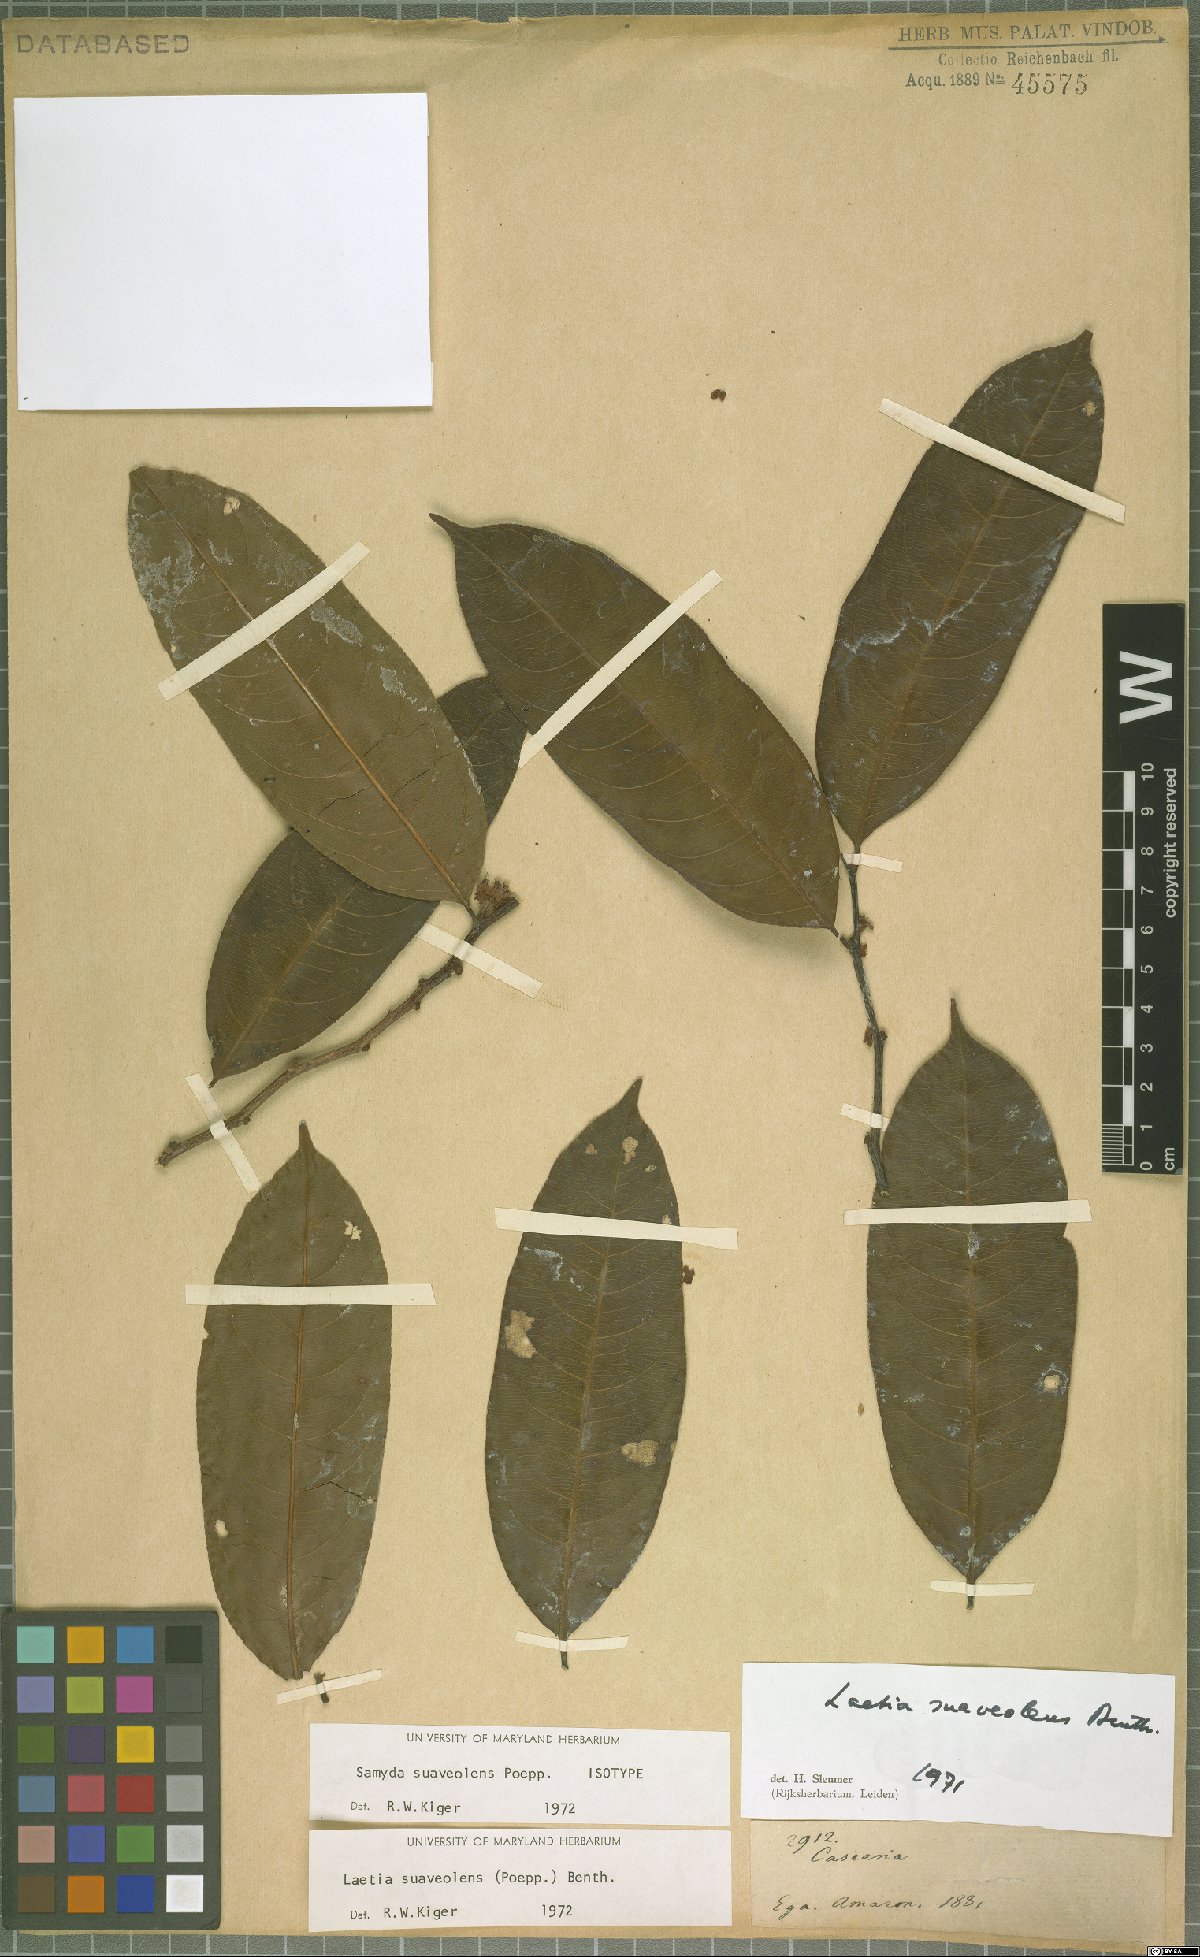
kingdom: Plantae
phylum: Tracheophyta
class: Magnoliopsida
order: Malpighiales
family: Salicaceae
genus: Casearia
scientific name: Casearia suaveolens
